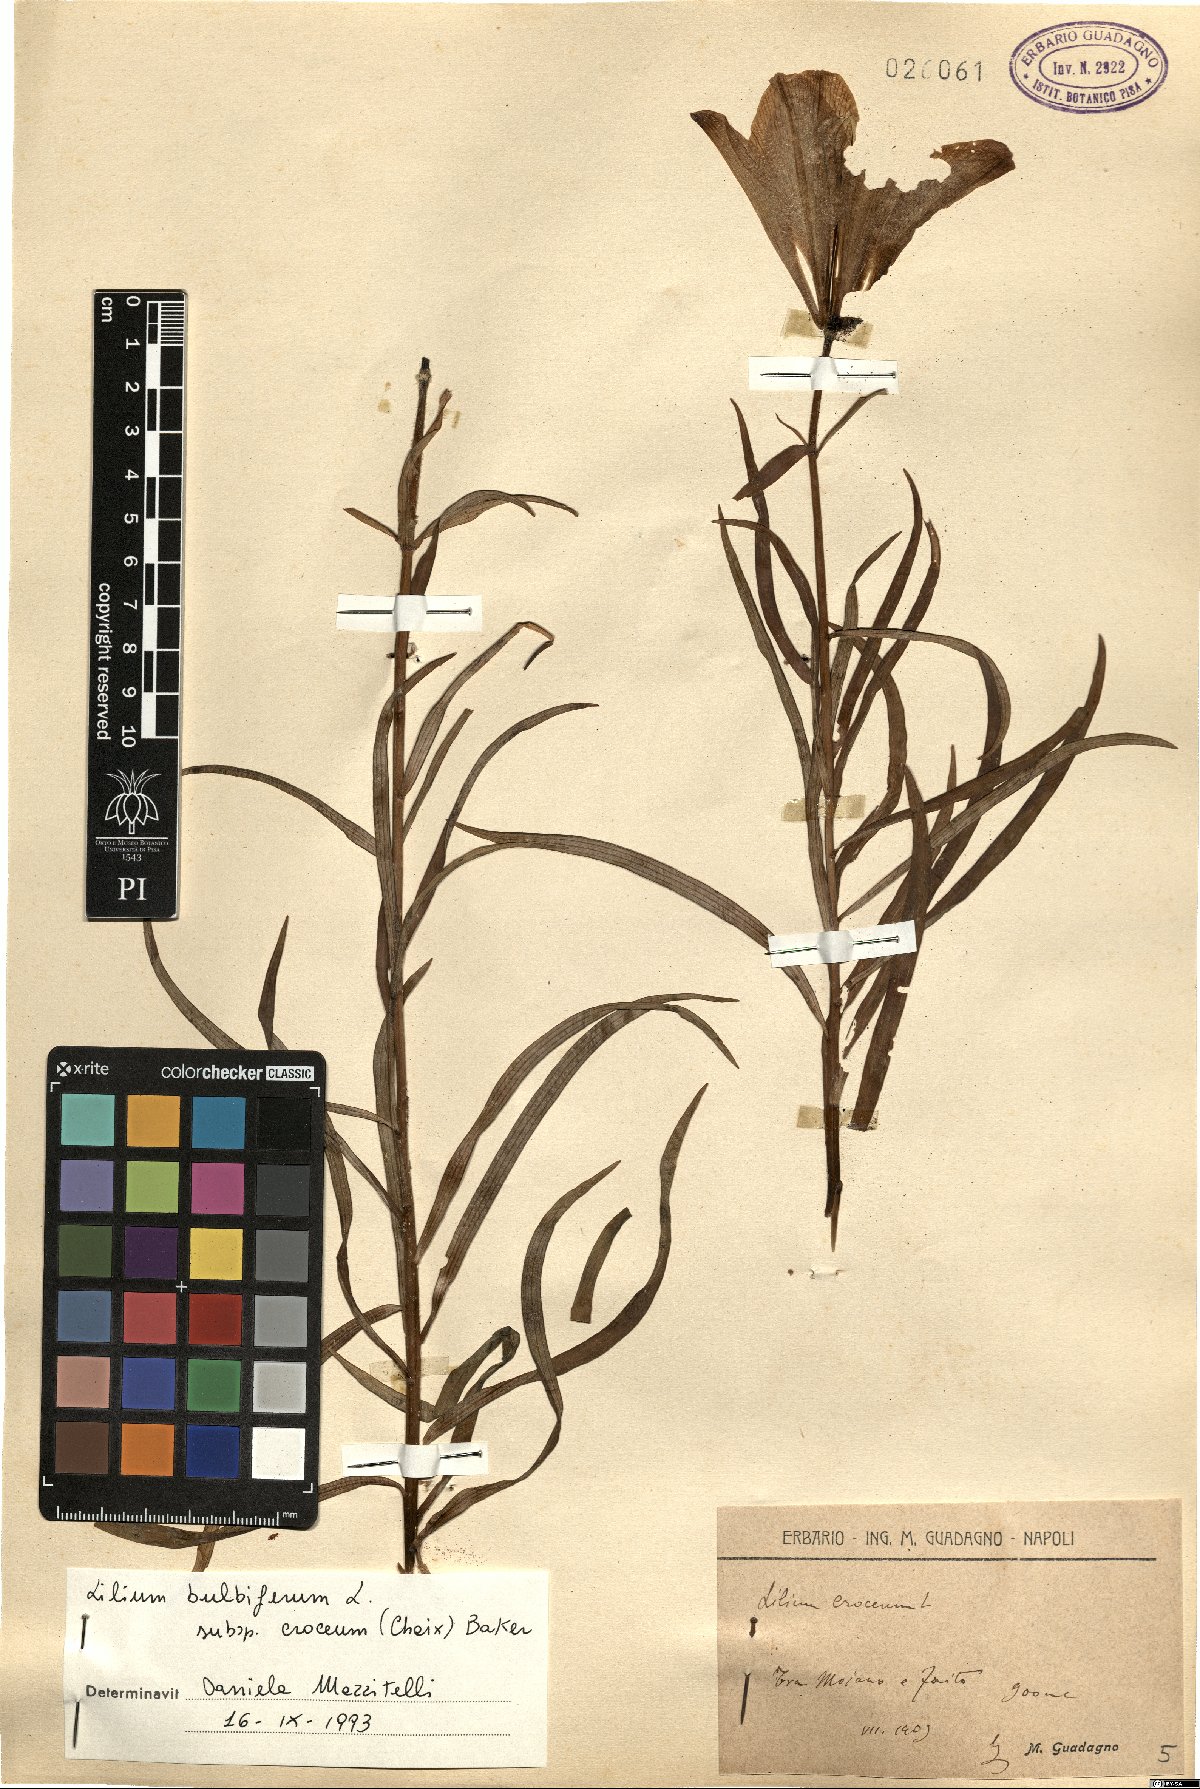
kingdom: Plantae
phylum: Tracheophyta
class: Liliopsida
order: Liliales
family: Liliaceae
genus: Lilium
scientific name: Lilium bulbiferum
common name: Orange lily
